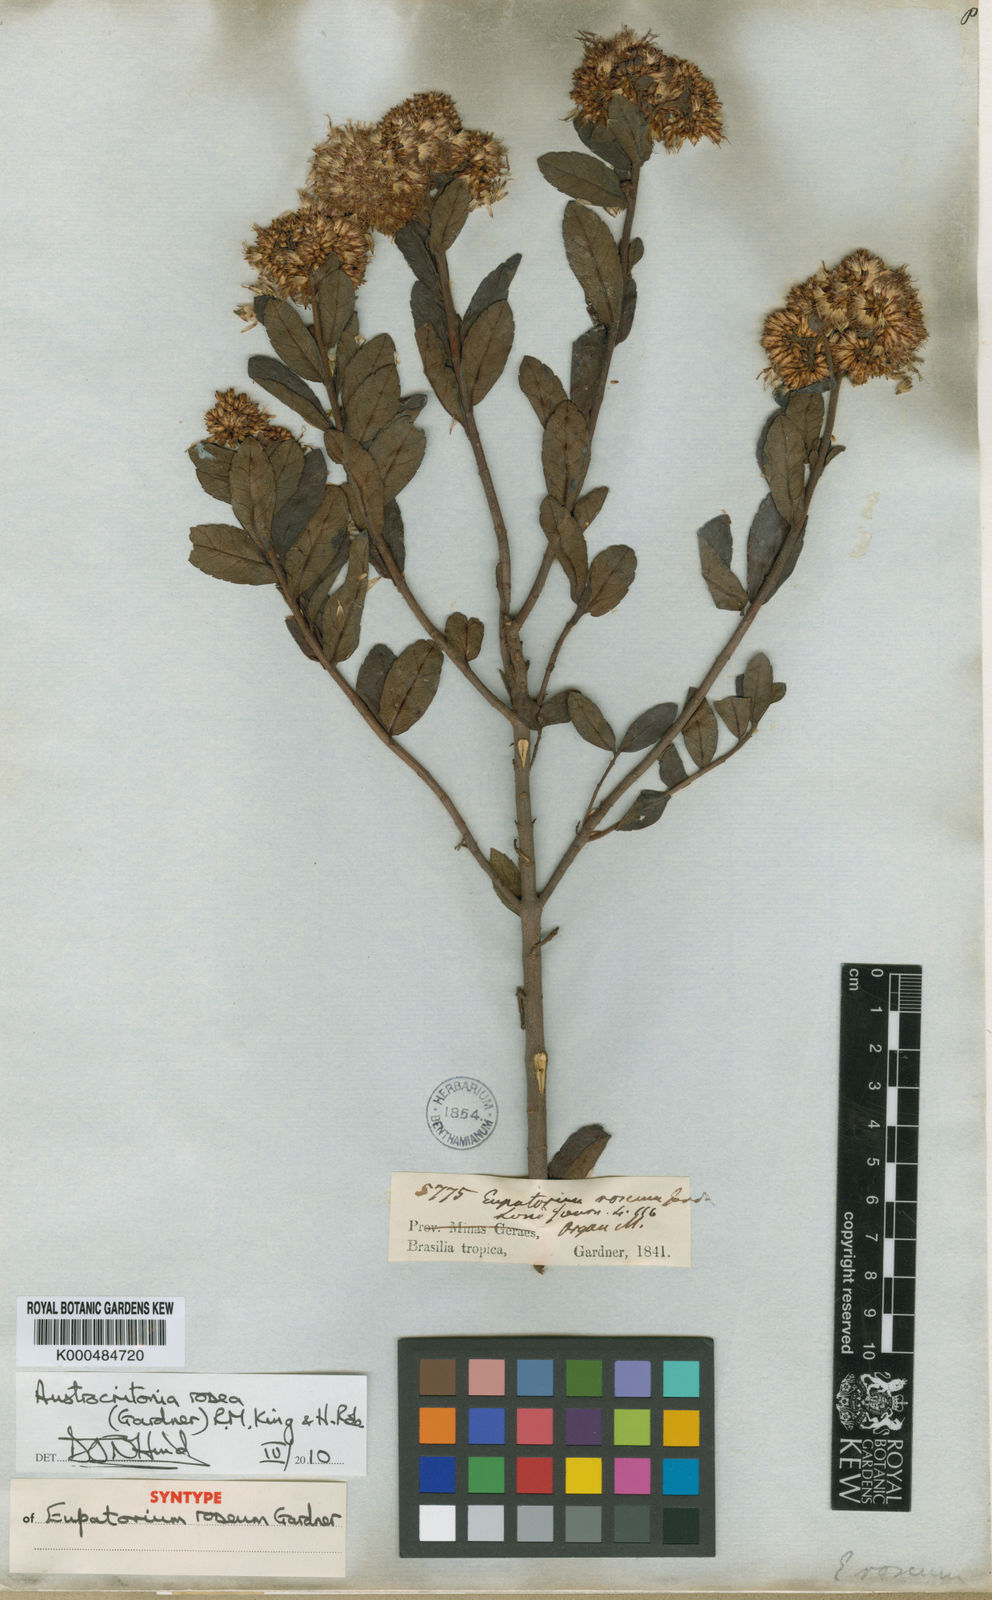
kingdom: Plantae
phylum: Tracheophyta
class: Magnoliopsida
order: Asterales
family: Asteraceae
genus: Austrocritonia
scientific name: Austrocritonia rosea
